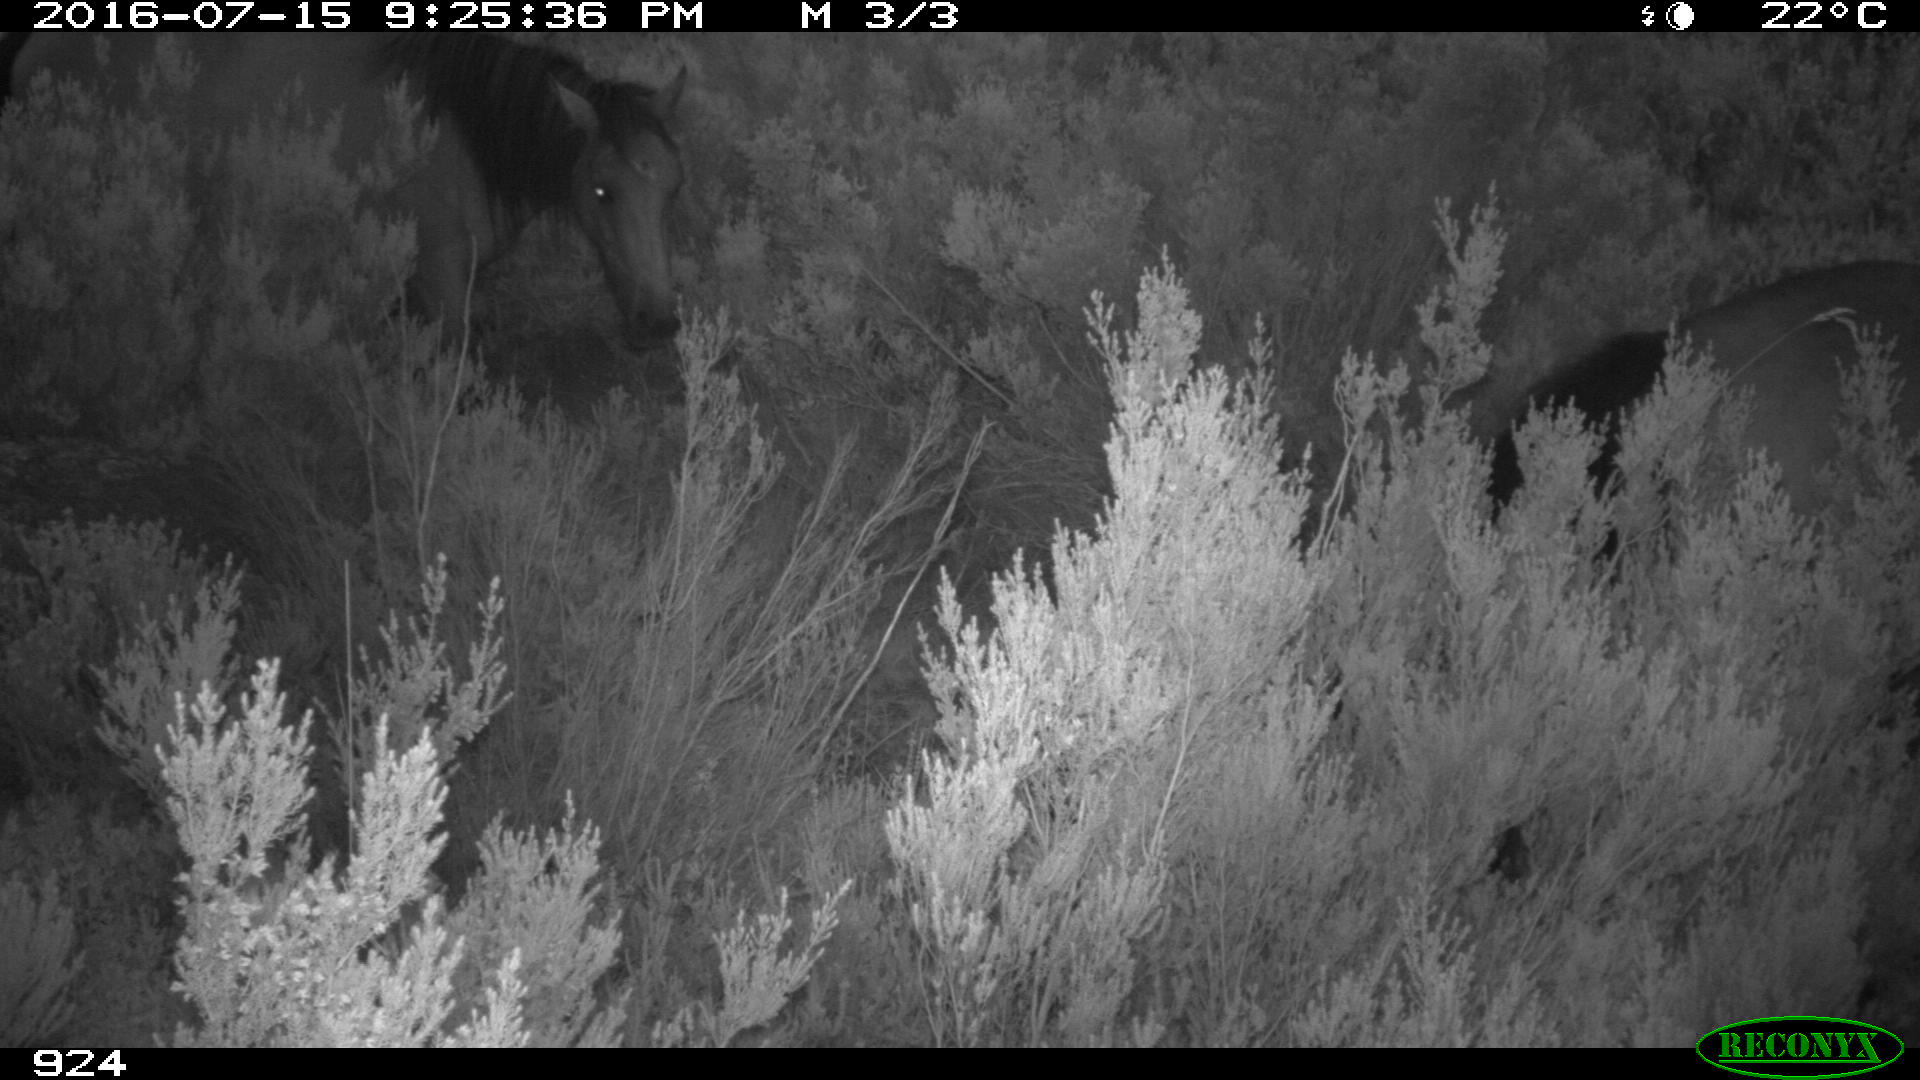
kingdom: Animalia
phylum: Chordata
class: Mammalia
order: Perissodactyla
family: Equidae
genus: Equus
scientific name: Equus caballus
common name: Horse
